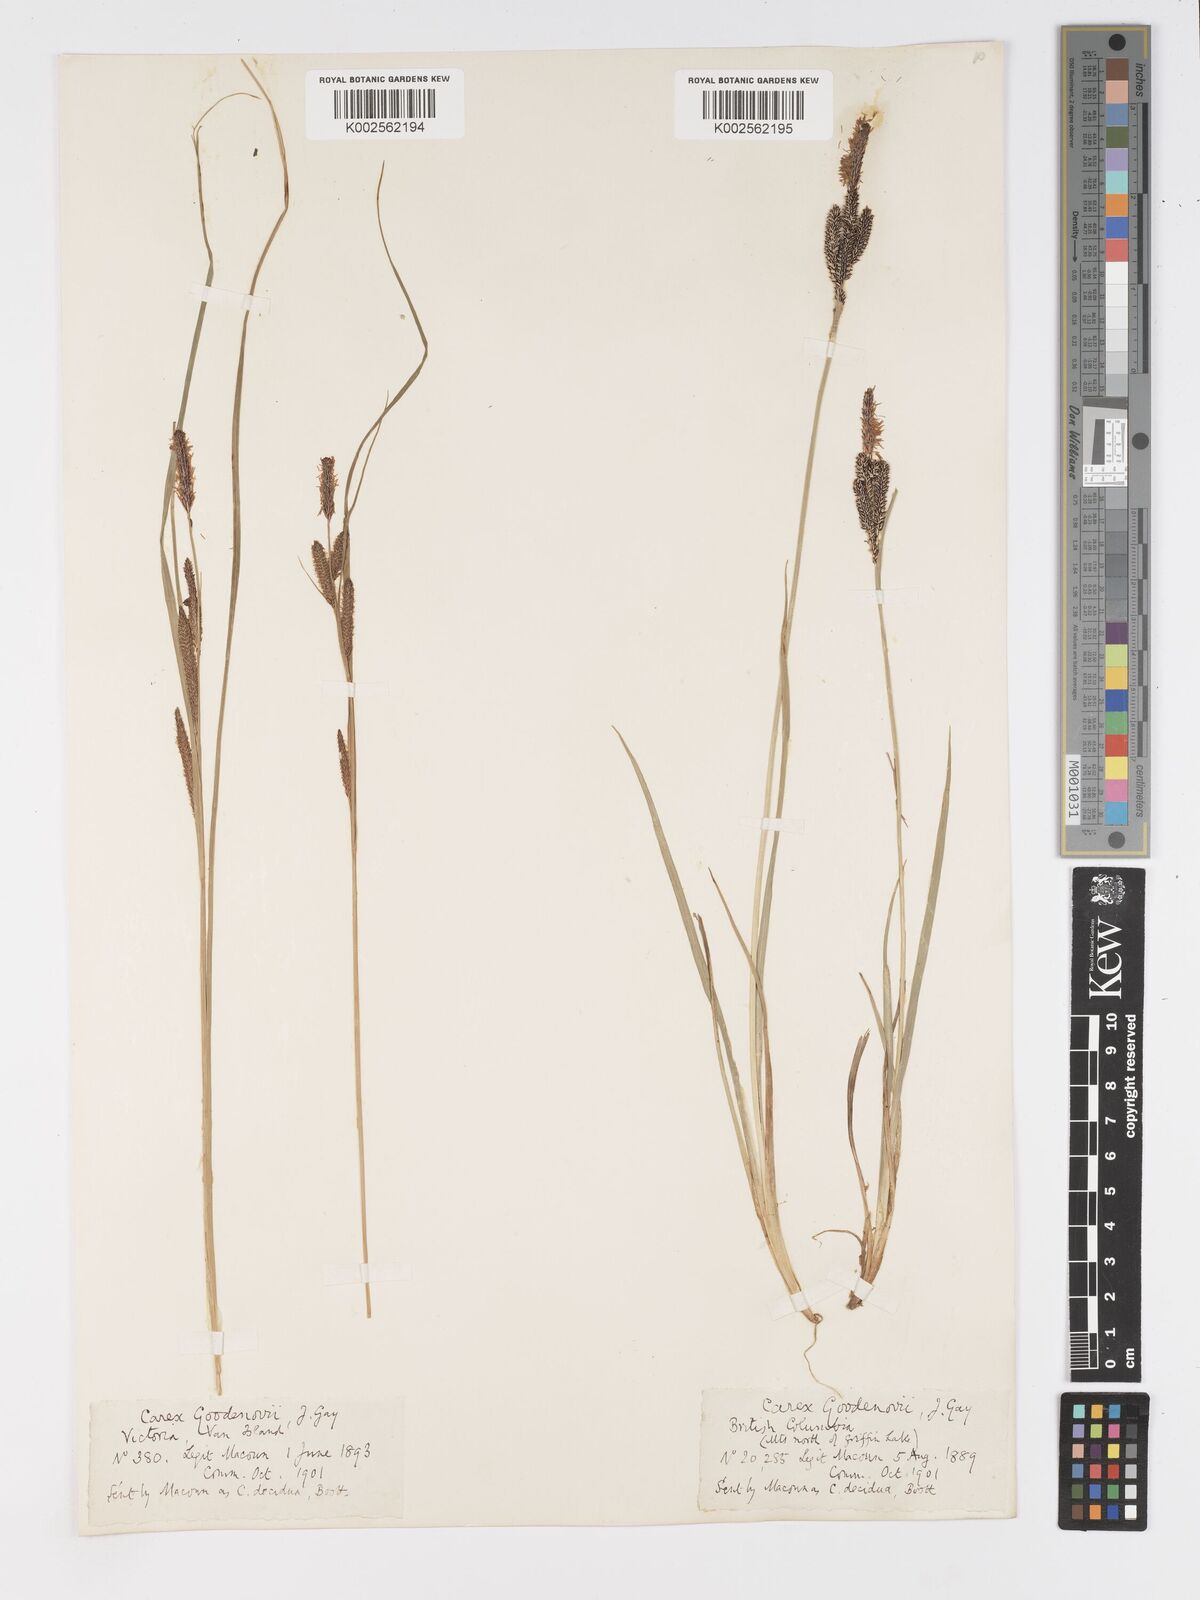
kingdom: Plantae
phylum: Tracheophyta
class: Liliopsida
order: Poales
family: Cyperaceae
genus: Carex
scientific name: Carex nigra
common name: Common sedge
